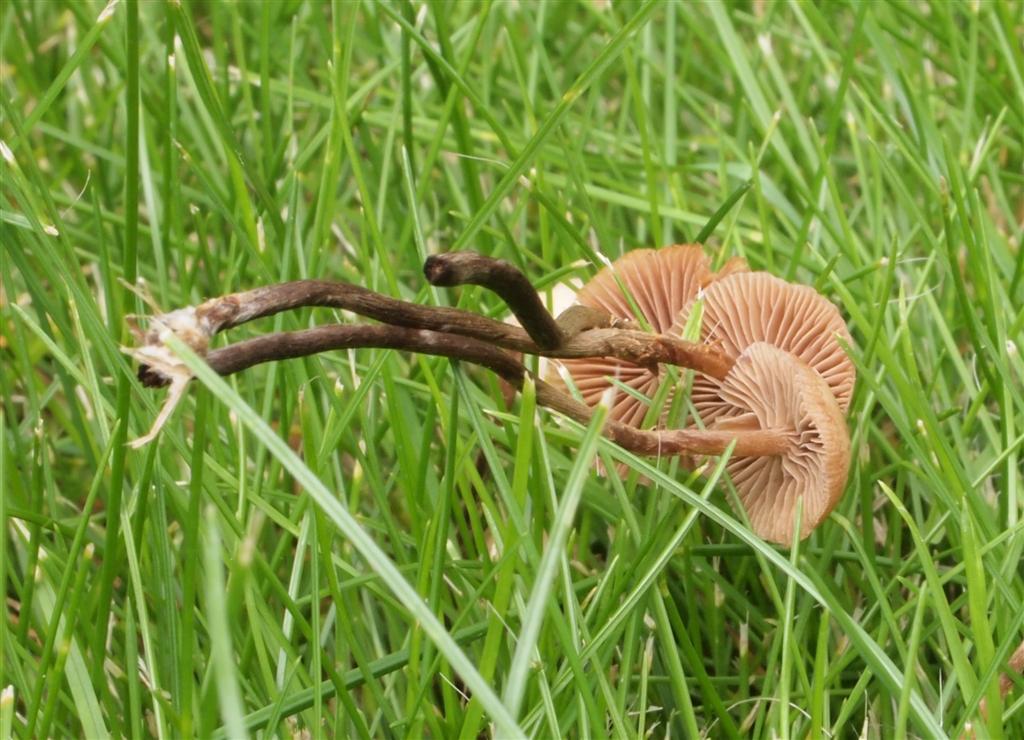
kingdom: Fungi
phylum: Basidiomycota
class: Agaricomycetes
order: Agaricales
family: Hymenogastraceae
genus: Psilocybe
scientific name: Psilocybe subviscida
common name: puklet stråhat
